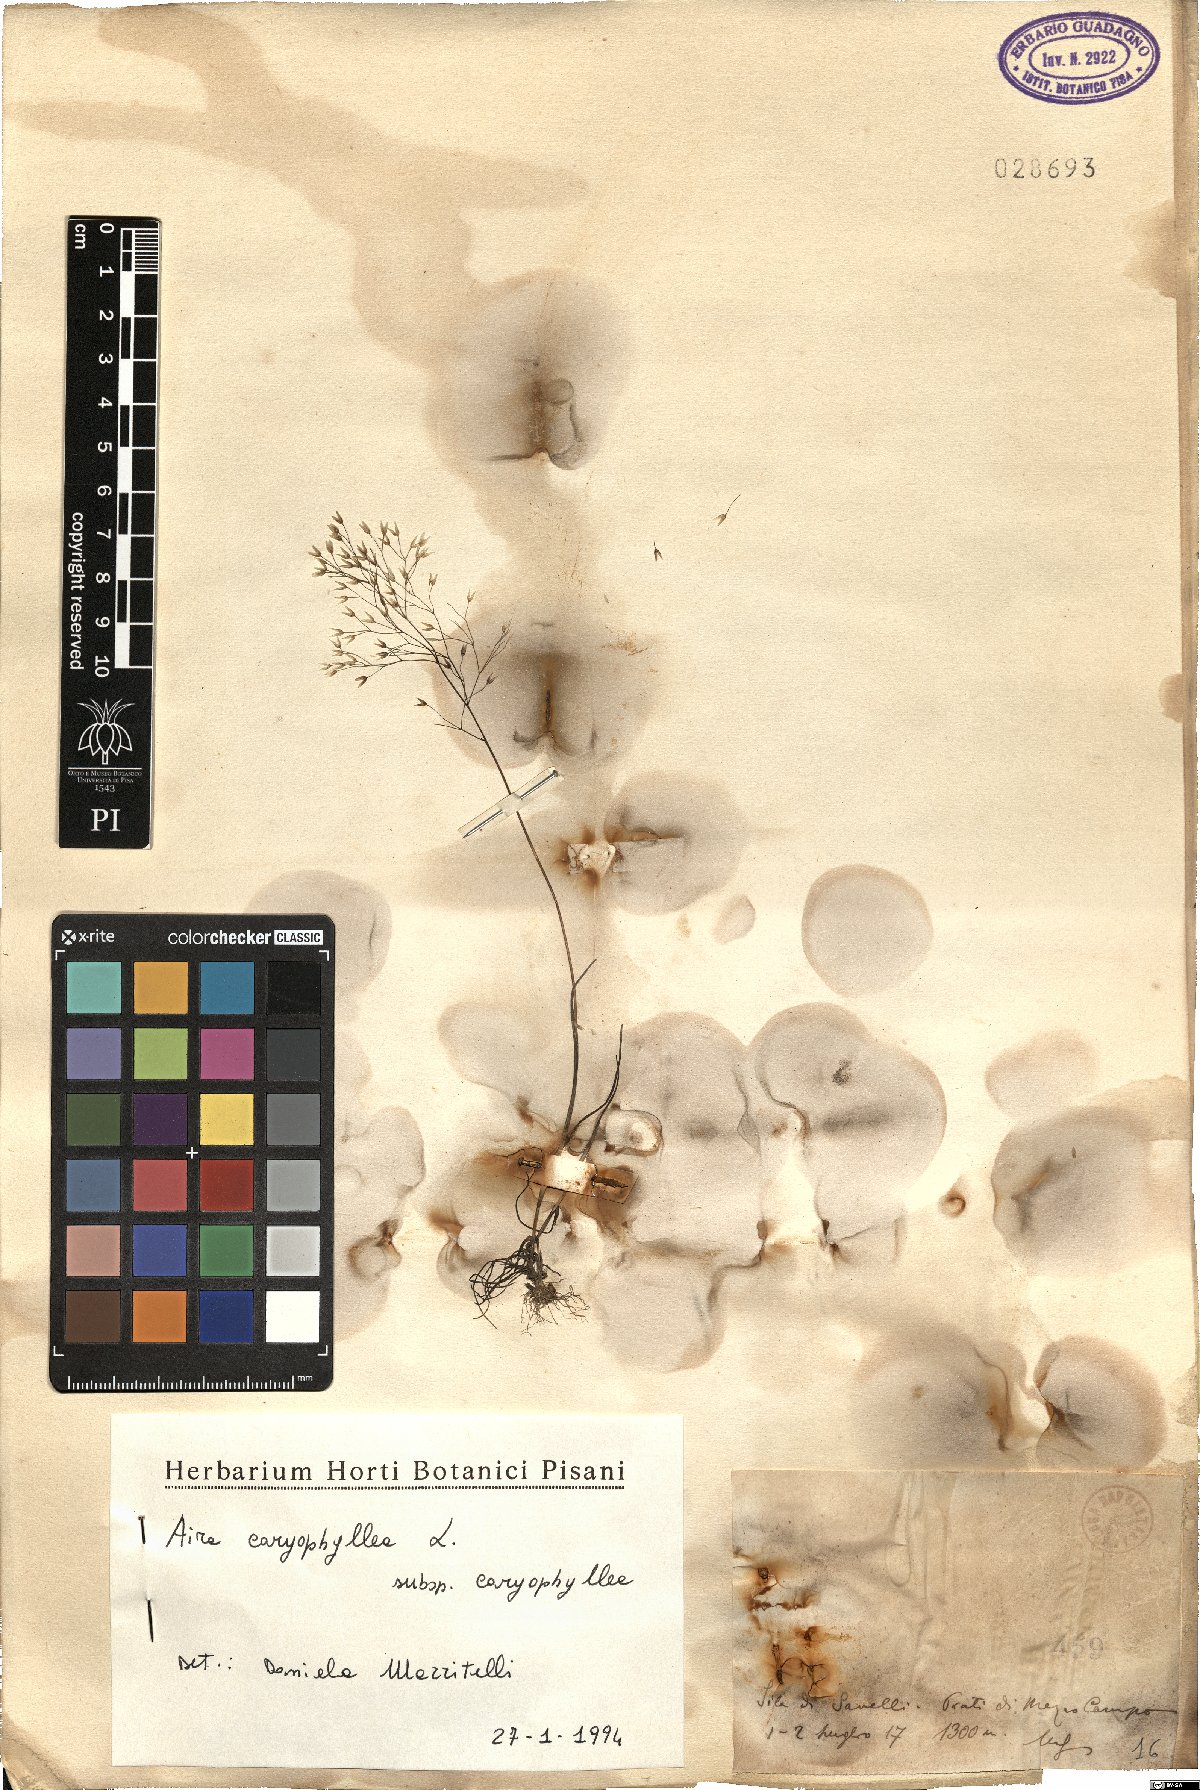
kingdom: Plantae
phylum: Tracheophyta
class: Liliopsida
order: Poales
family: Poaceae
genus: Aira
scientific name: Aira caryophyllea
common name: Silver hairgrass
